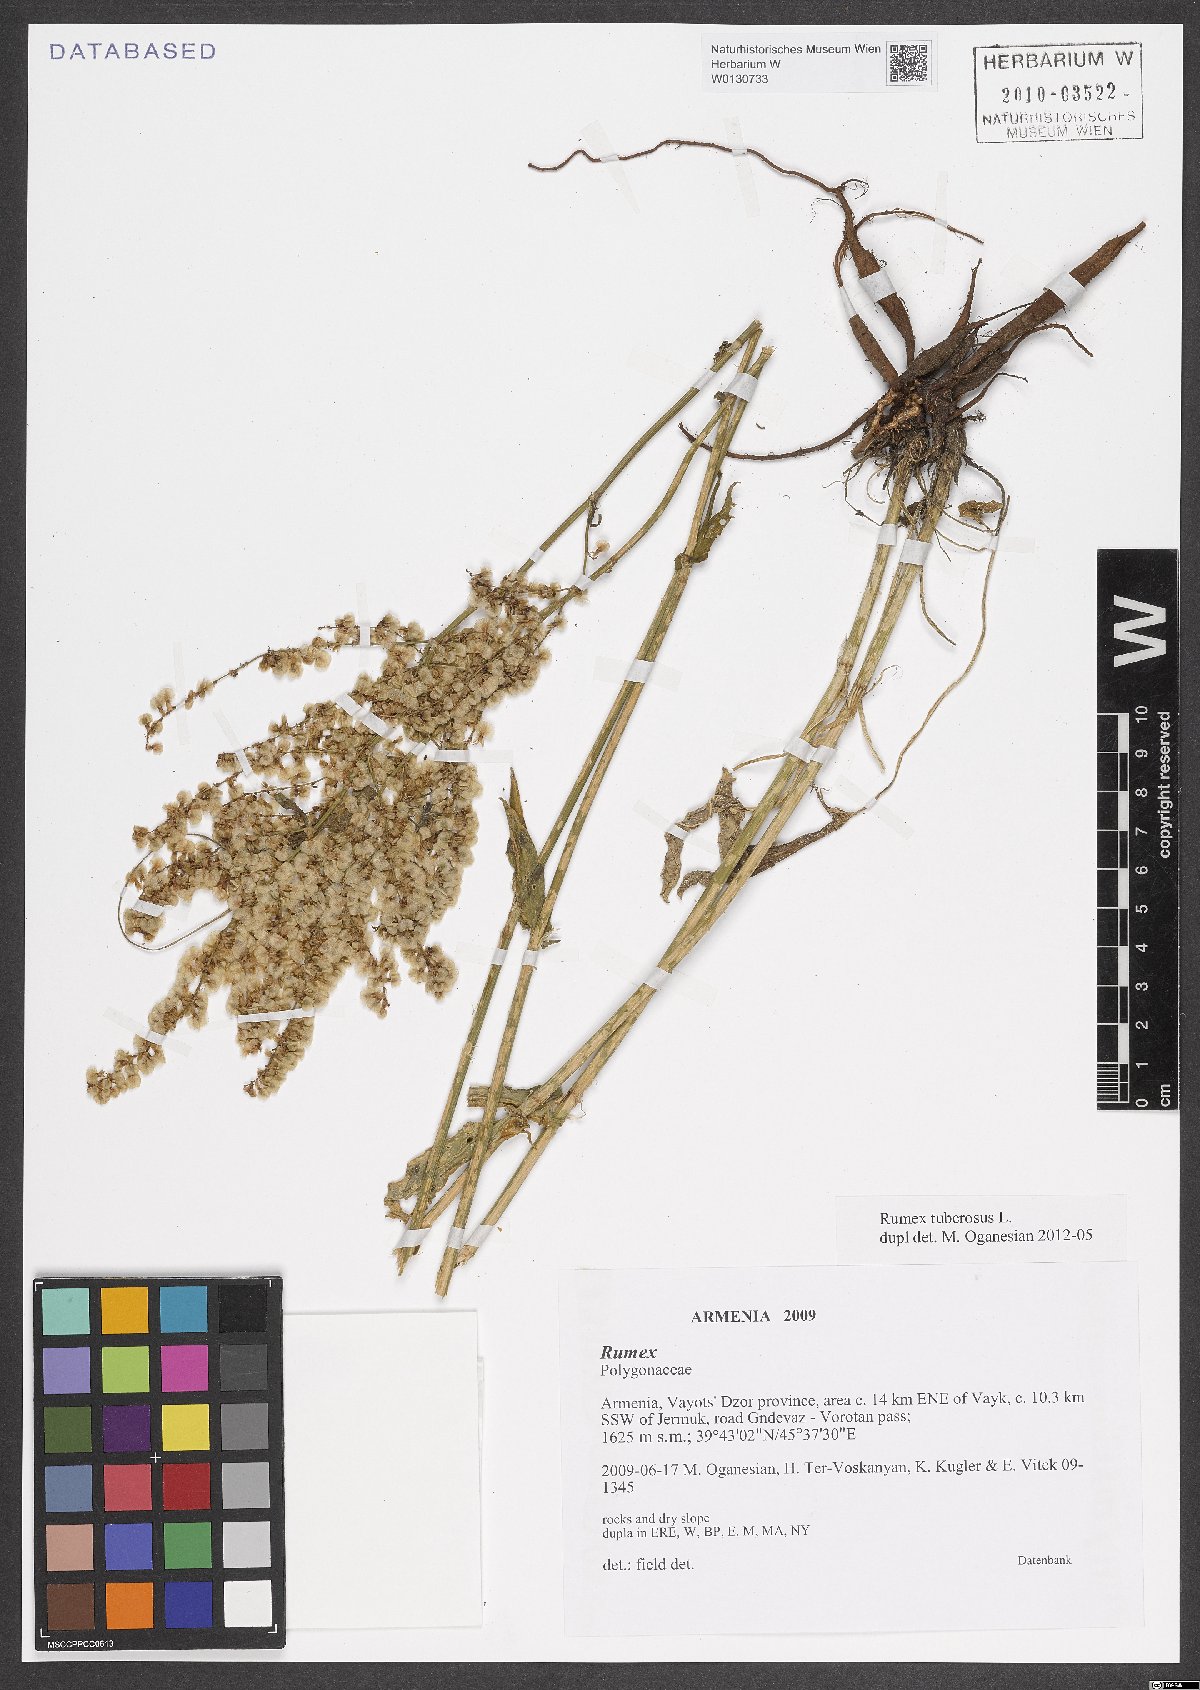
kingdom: Plantae
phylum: Tracheophyta
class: Magnoliopsida
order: Caryophyllales
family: Polygonaceae
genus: Rumex
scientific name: Rumex tuberosus
